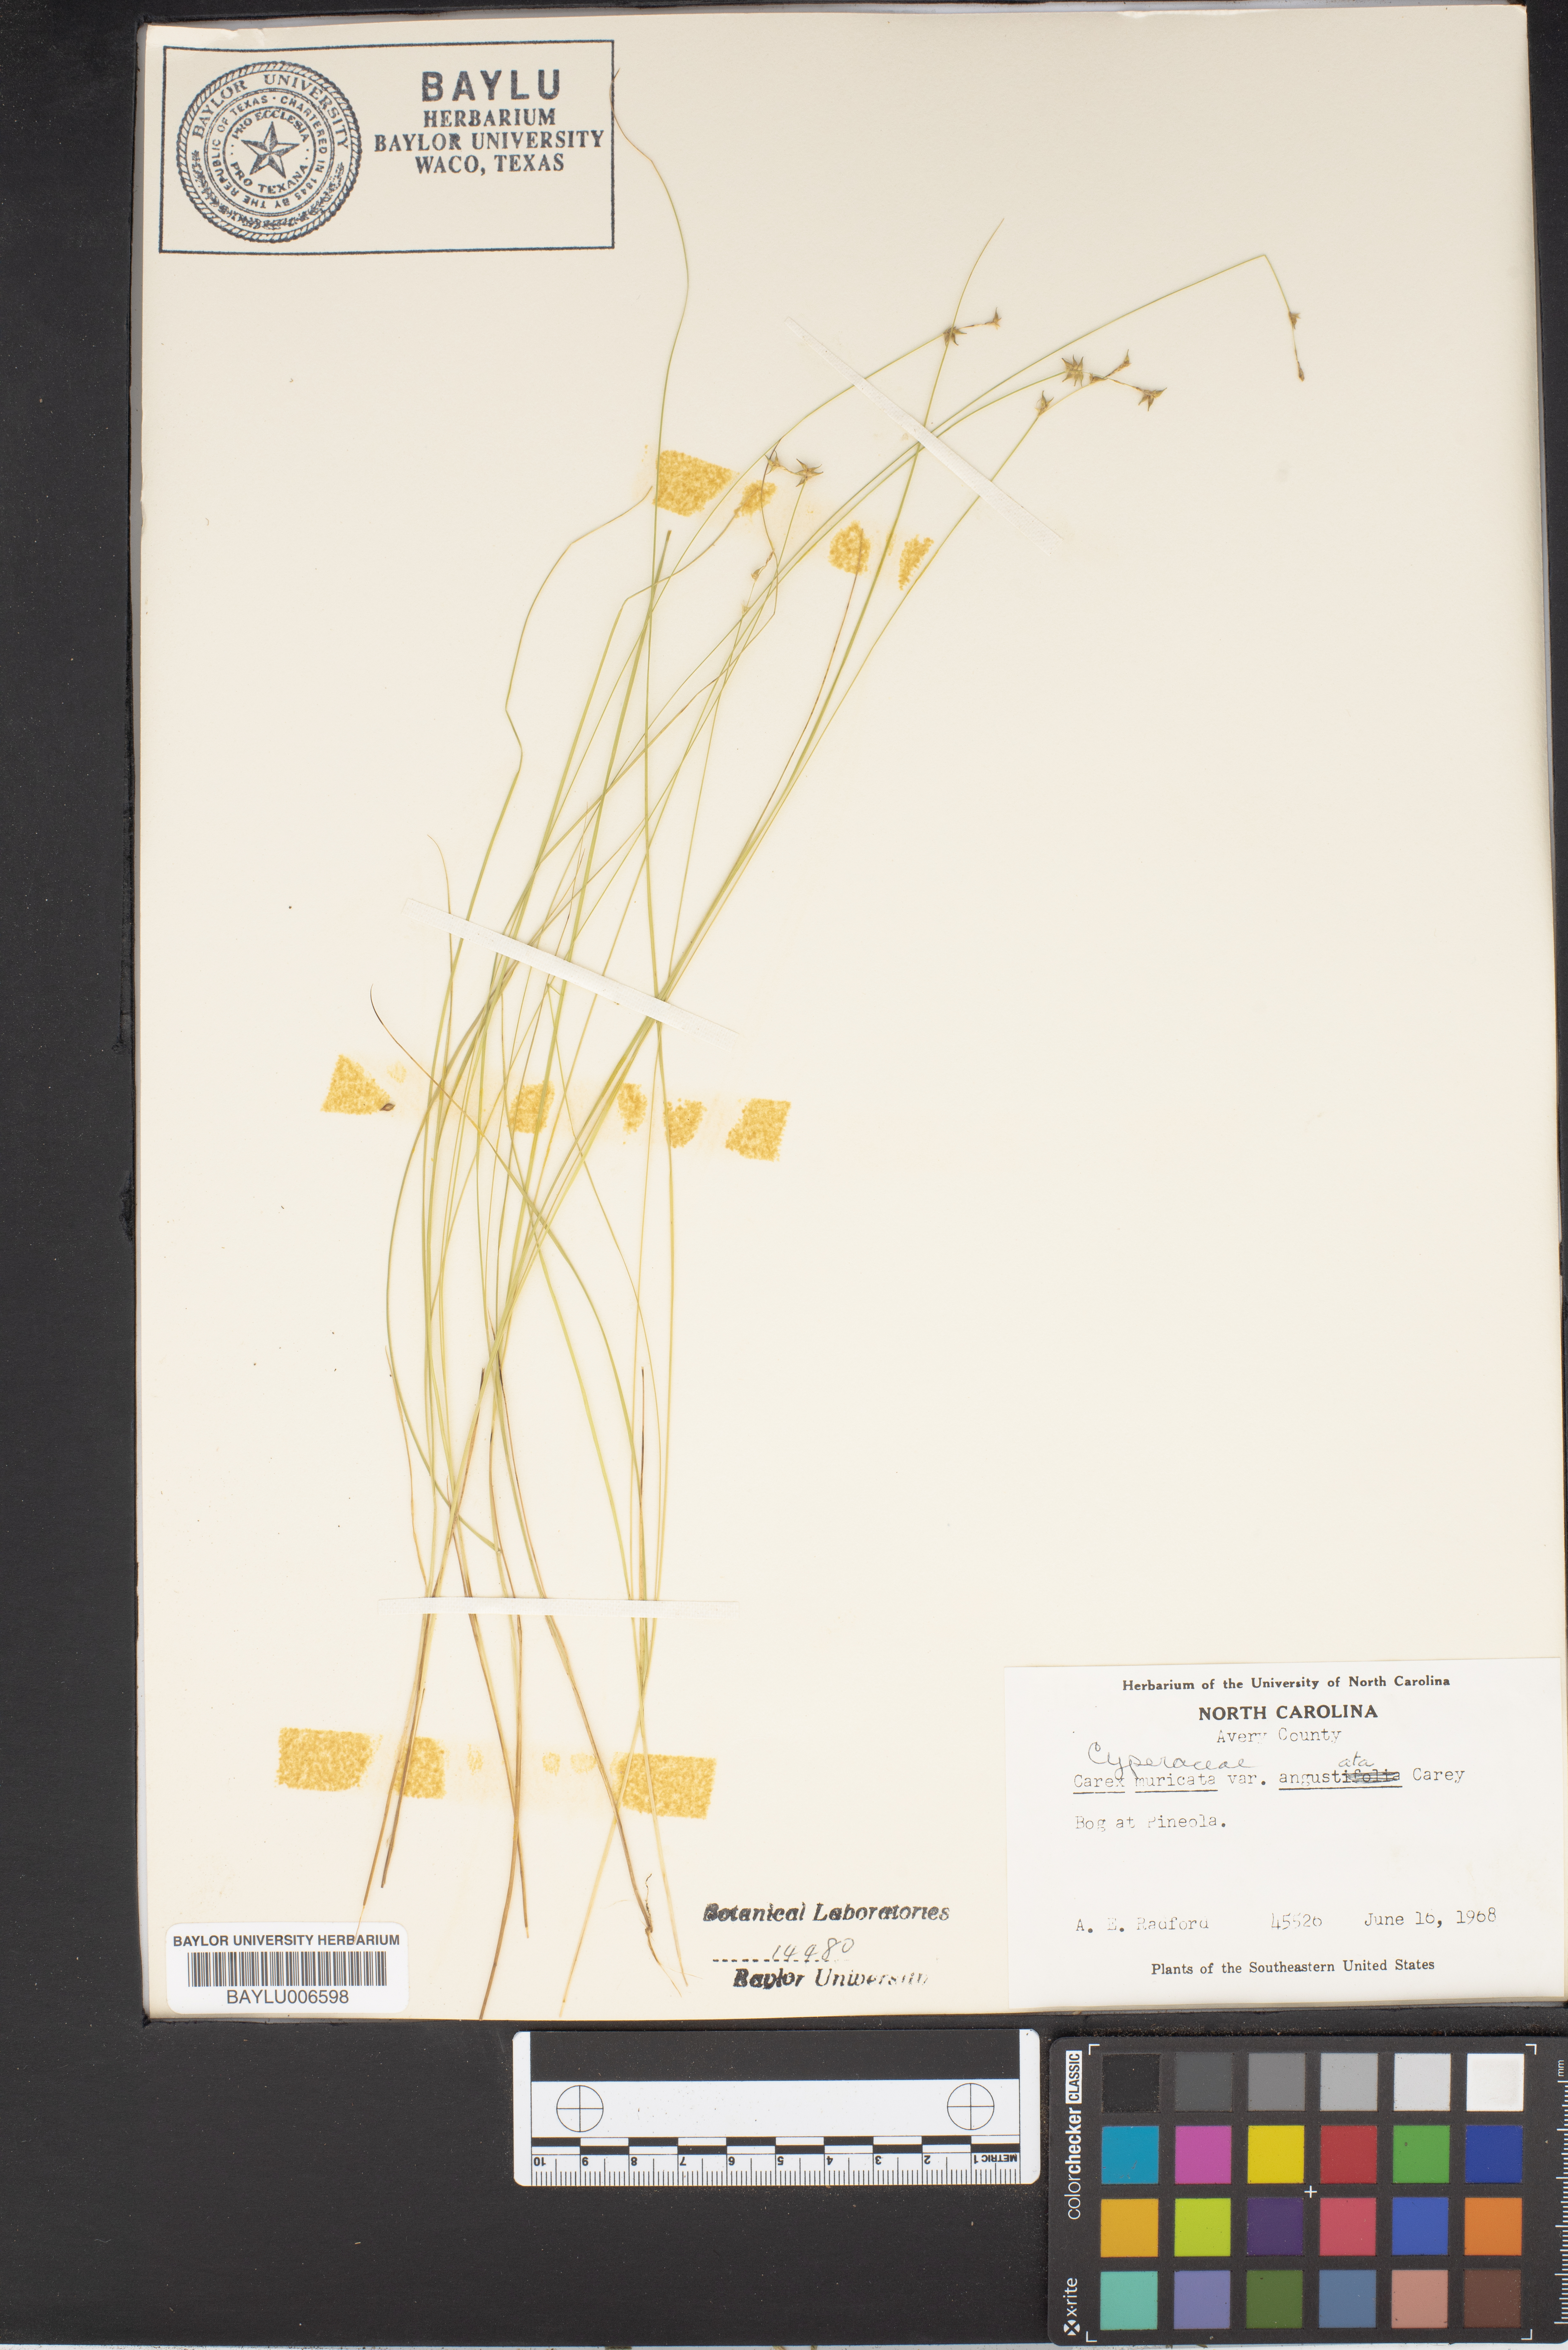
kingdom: Plantae
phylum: Tracheophyta
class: Liliopsida
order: Poales
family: Cyperaceae
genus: Carex
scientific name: Carex echinata
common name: Star sedge
